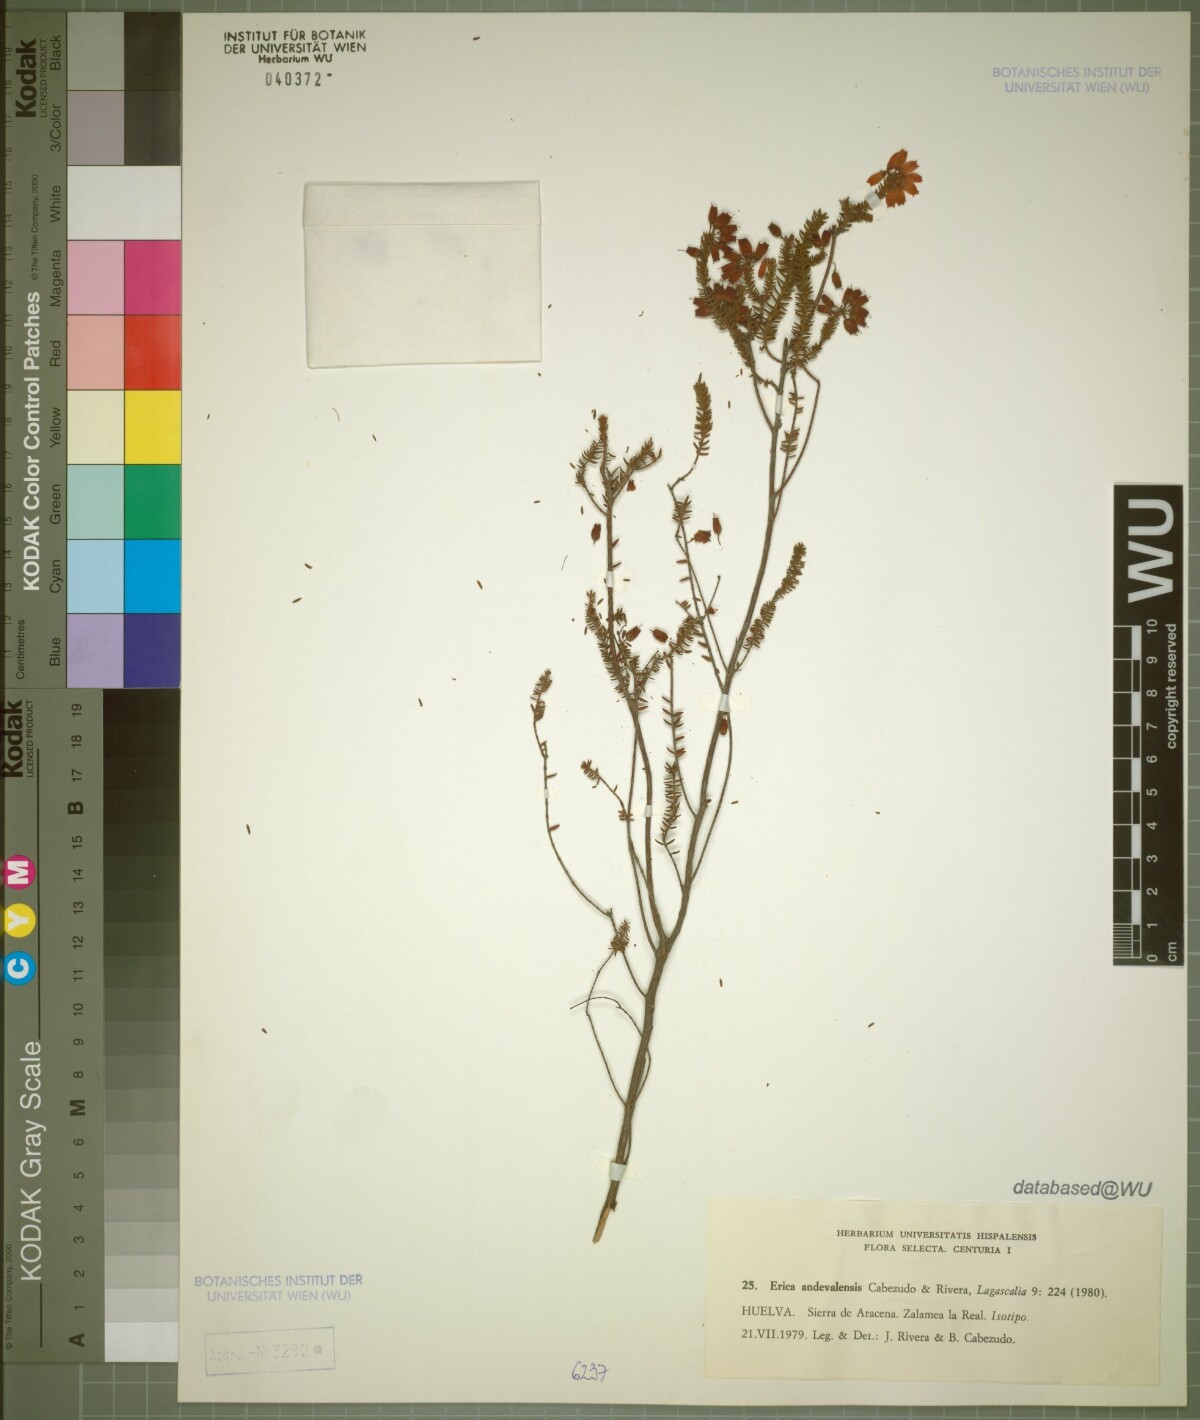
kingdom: Plantae
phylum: Tracheophyta
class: Magnoliopsida
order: Ericales
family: Ericaceae
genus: Erica
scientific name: Erica mackayana
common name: Mackay's heath
